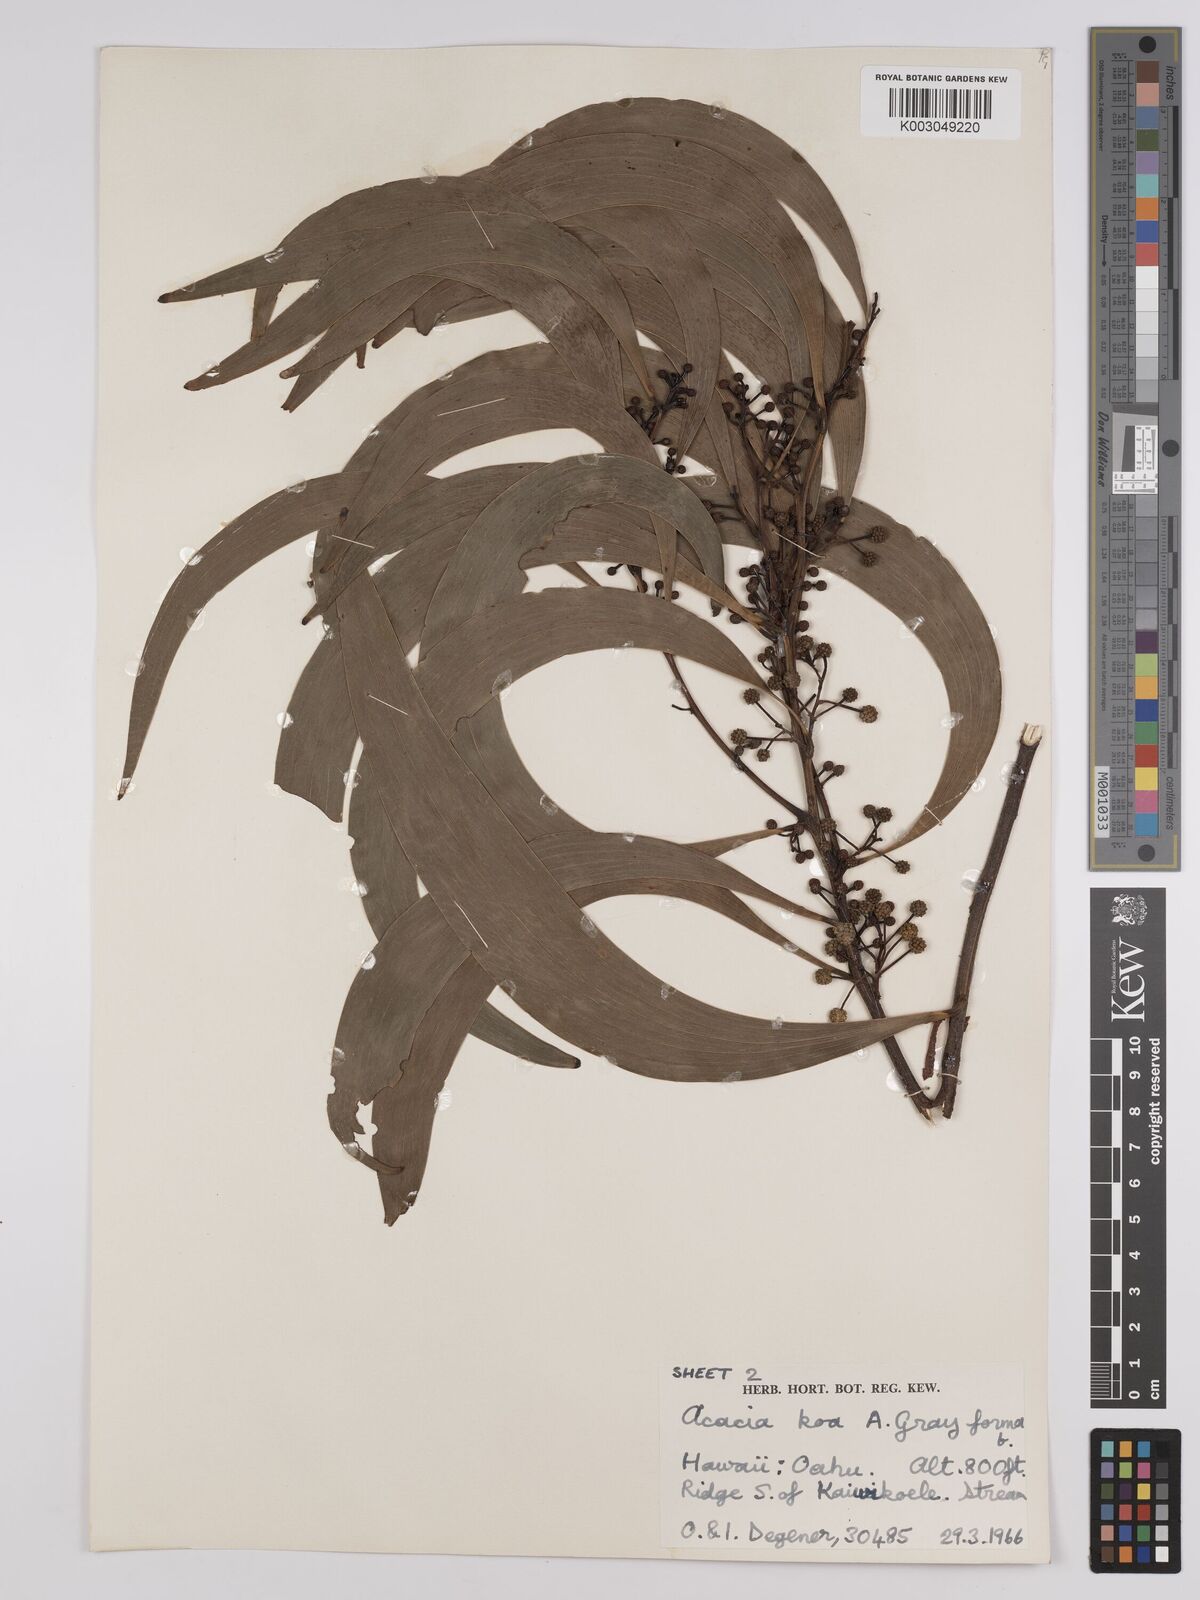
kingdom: Plantae
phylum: Tracheophyta
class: Magnoliopsida
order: Fabales
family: Fabaceae
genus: Acacia
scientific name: Acacia koa
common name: Gray koa
